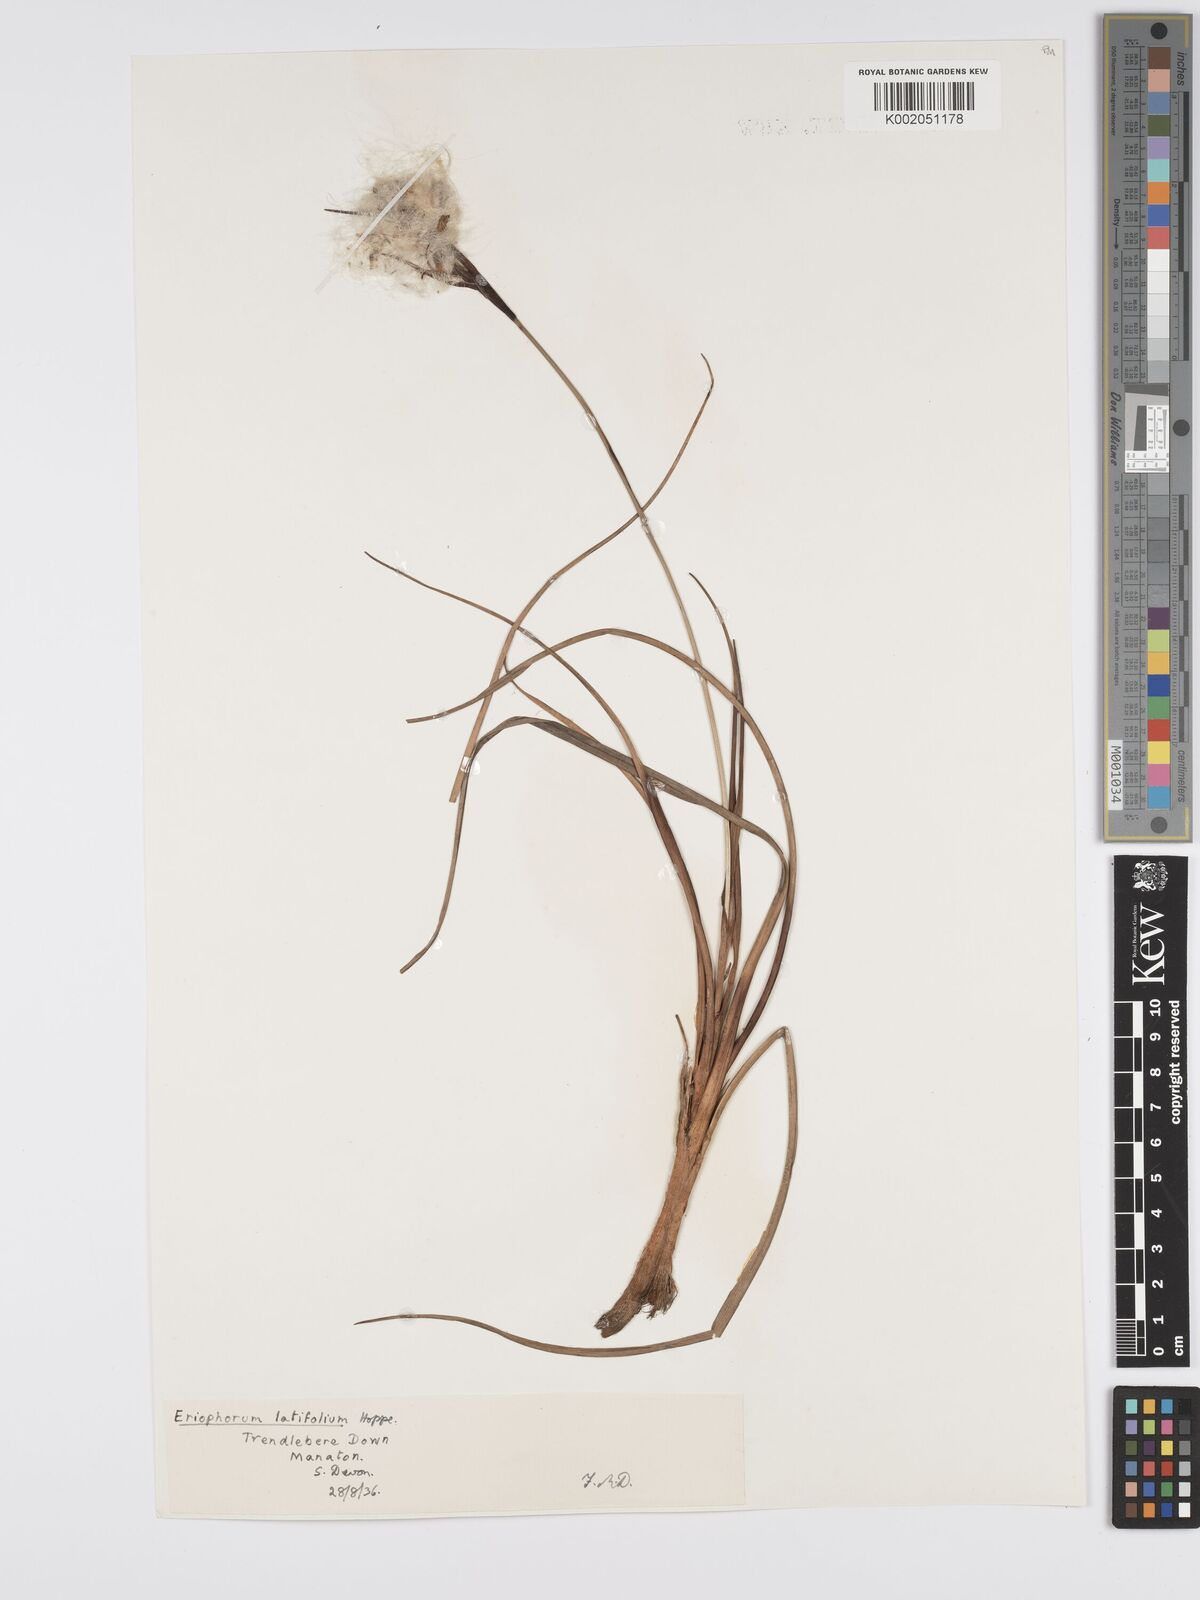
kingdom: Plantae
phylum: Tracheophyta
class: Liliopsida
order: Poales
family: Cyperaceae
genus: Eriophorum
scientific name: Eriophorum latifolium
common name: Broad-leaved cottongrass
